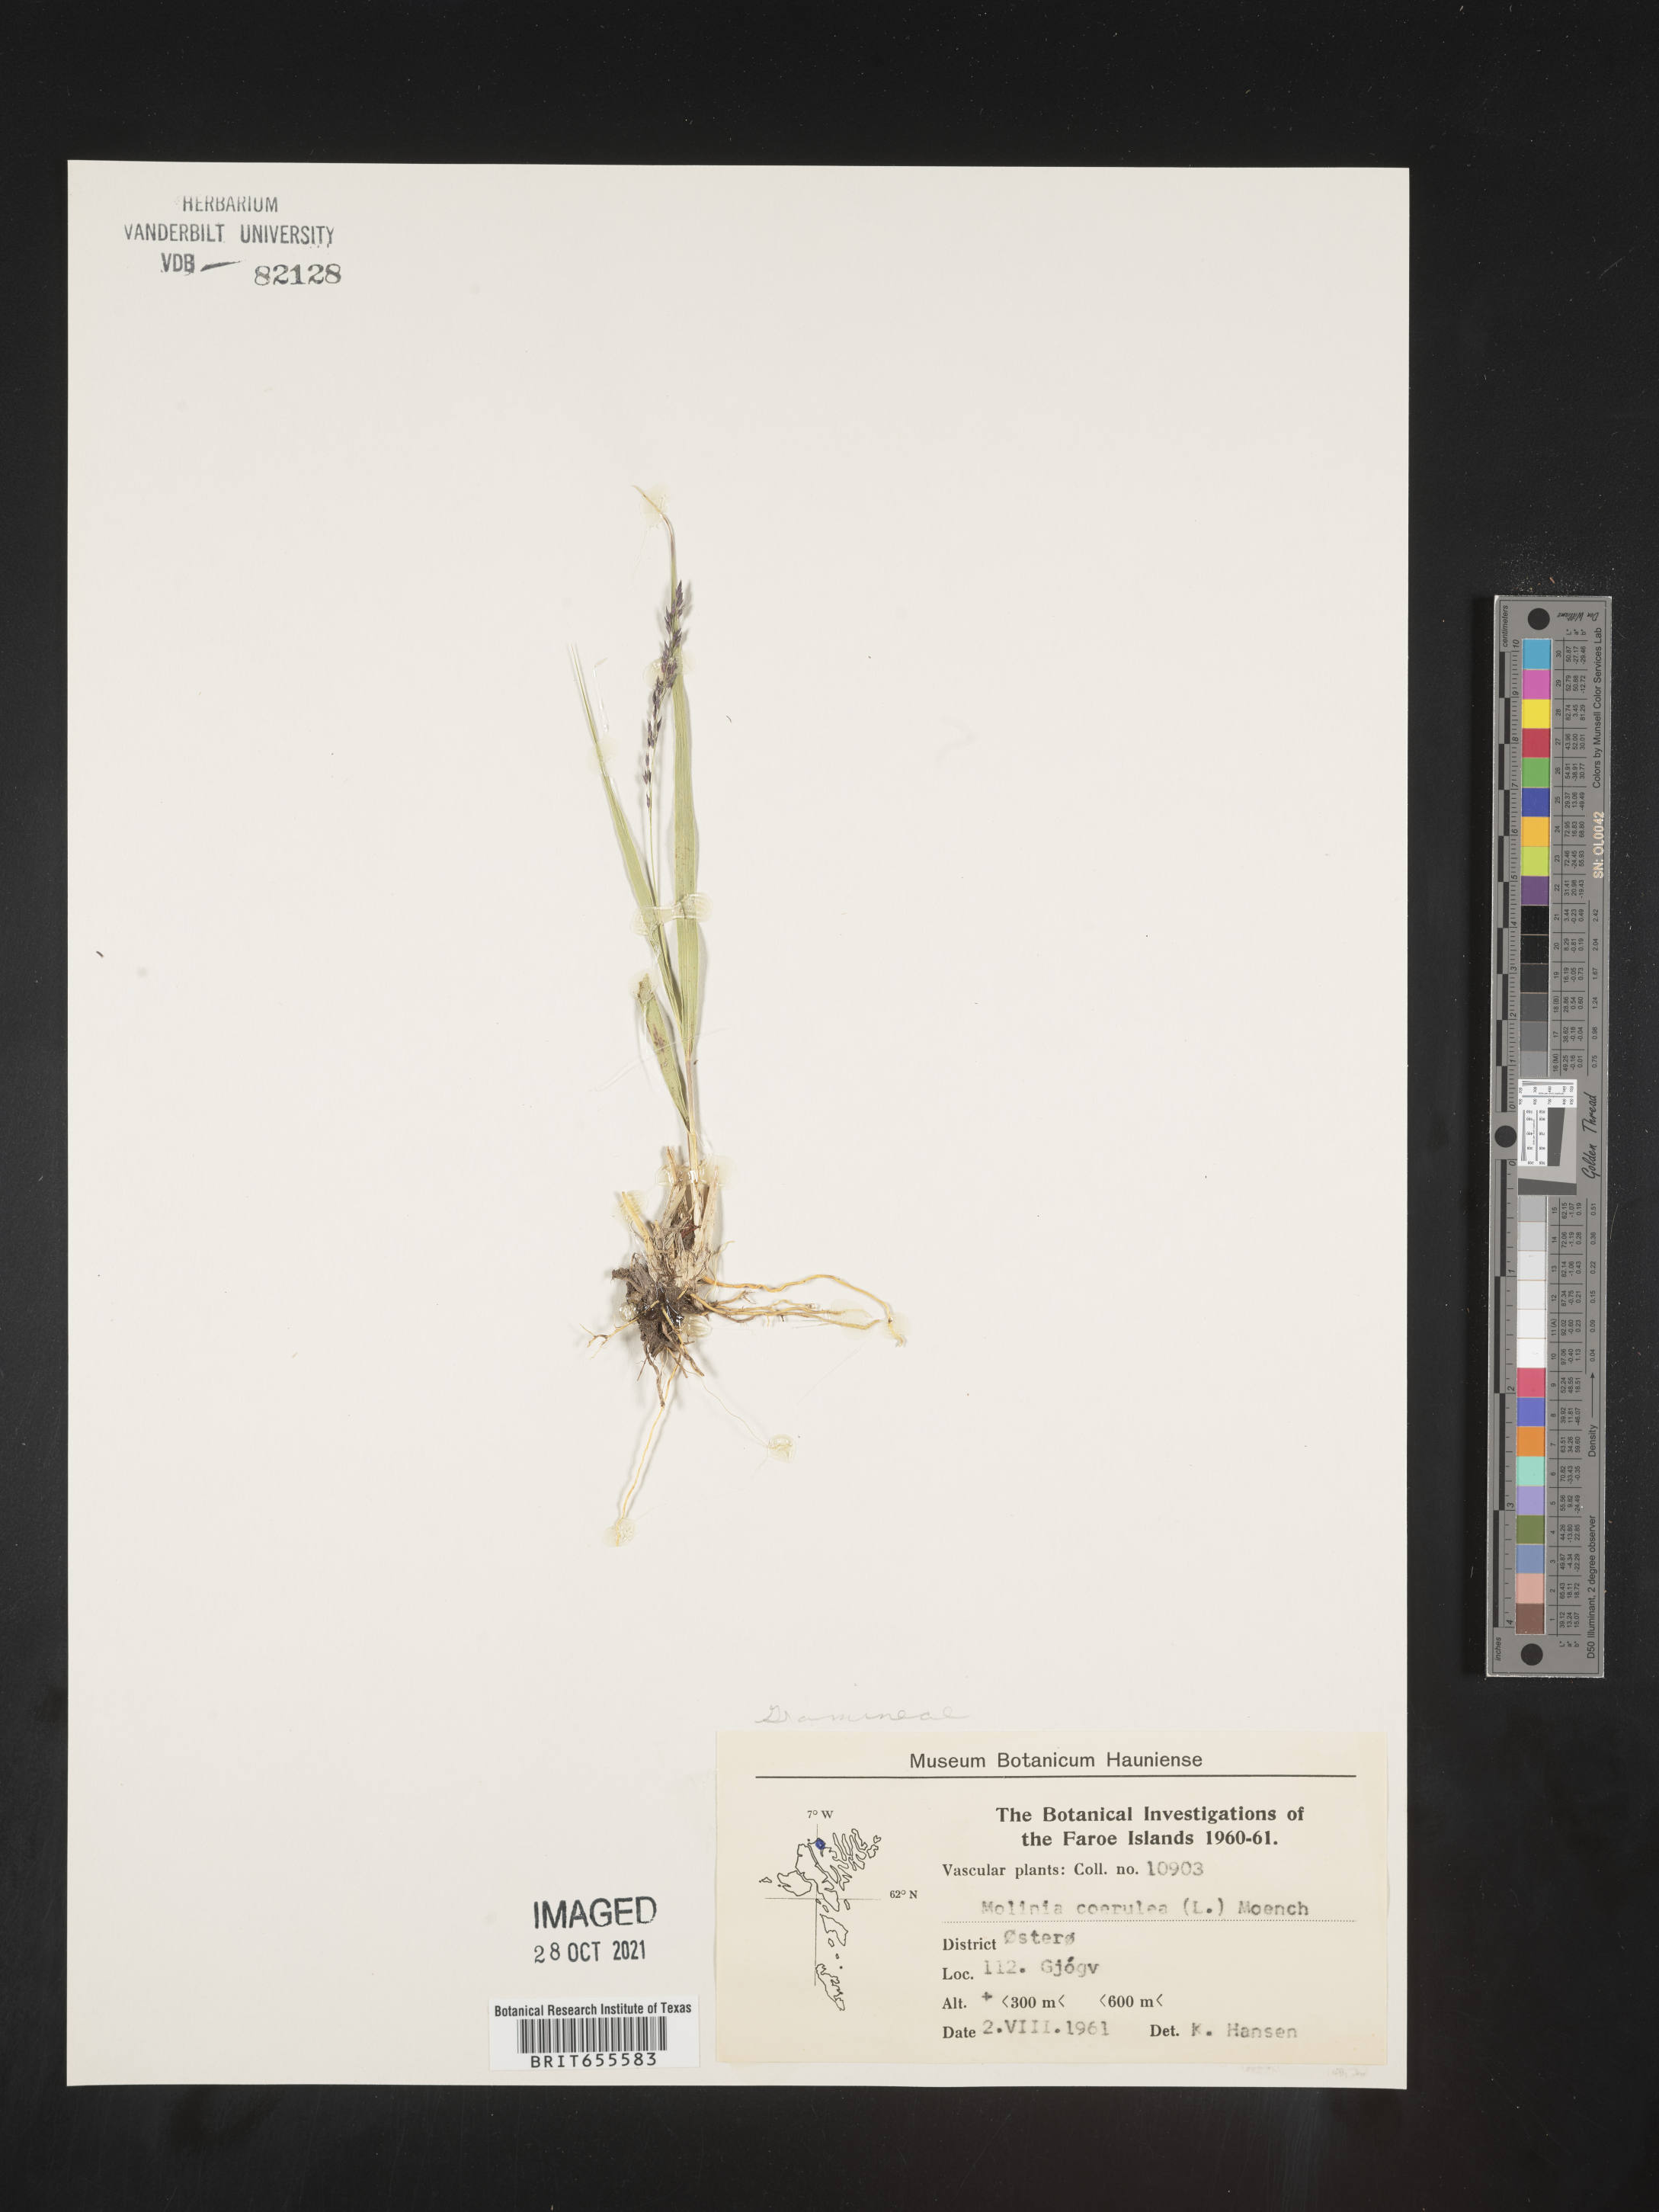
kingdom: Plantae
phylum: Tracheophyta
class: Liliopsida
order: Poales
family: Poaceae
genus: Molinia
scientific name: Molinia
